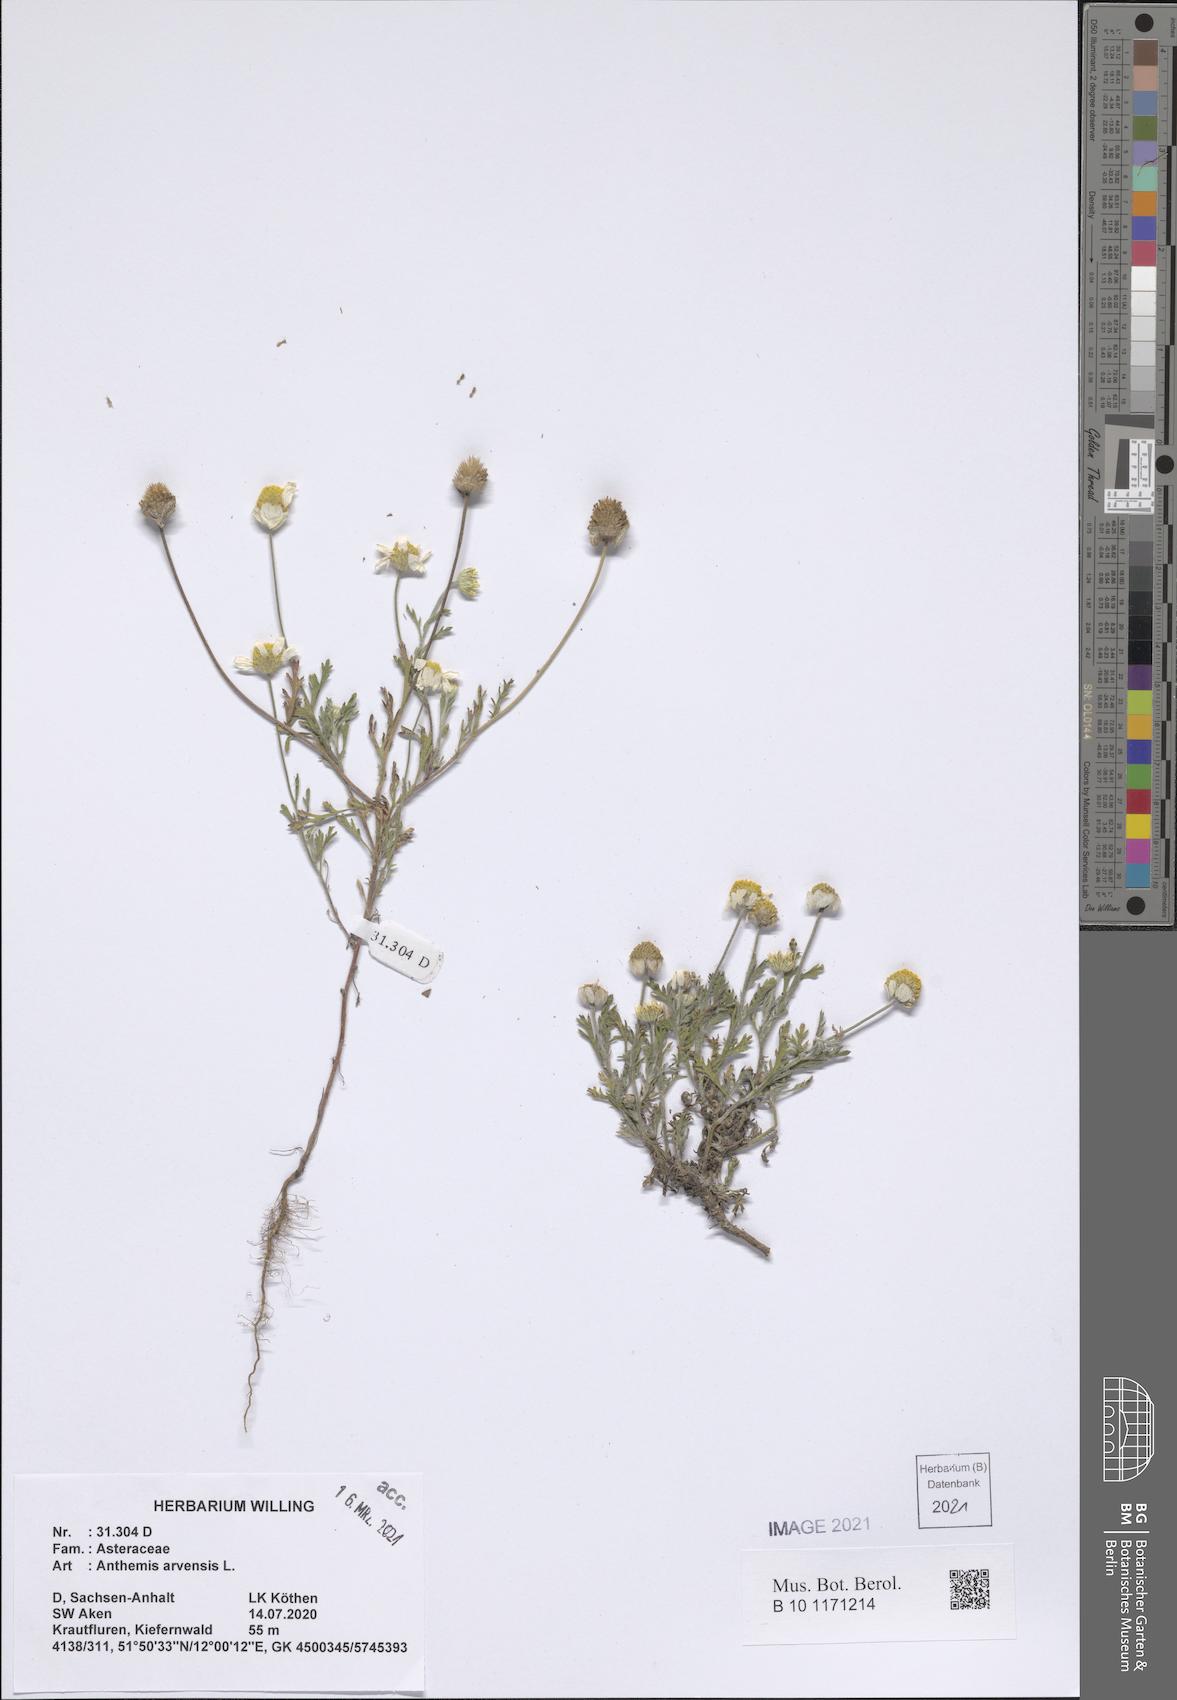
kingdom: Plantae
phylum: Tracheophyta
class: Magnoliopsida
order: Asterales
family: Asteraceae
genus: Anthemis
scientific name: Anthemis arvensis
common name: Corn chamomile
